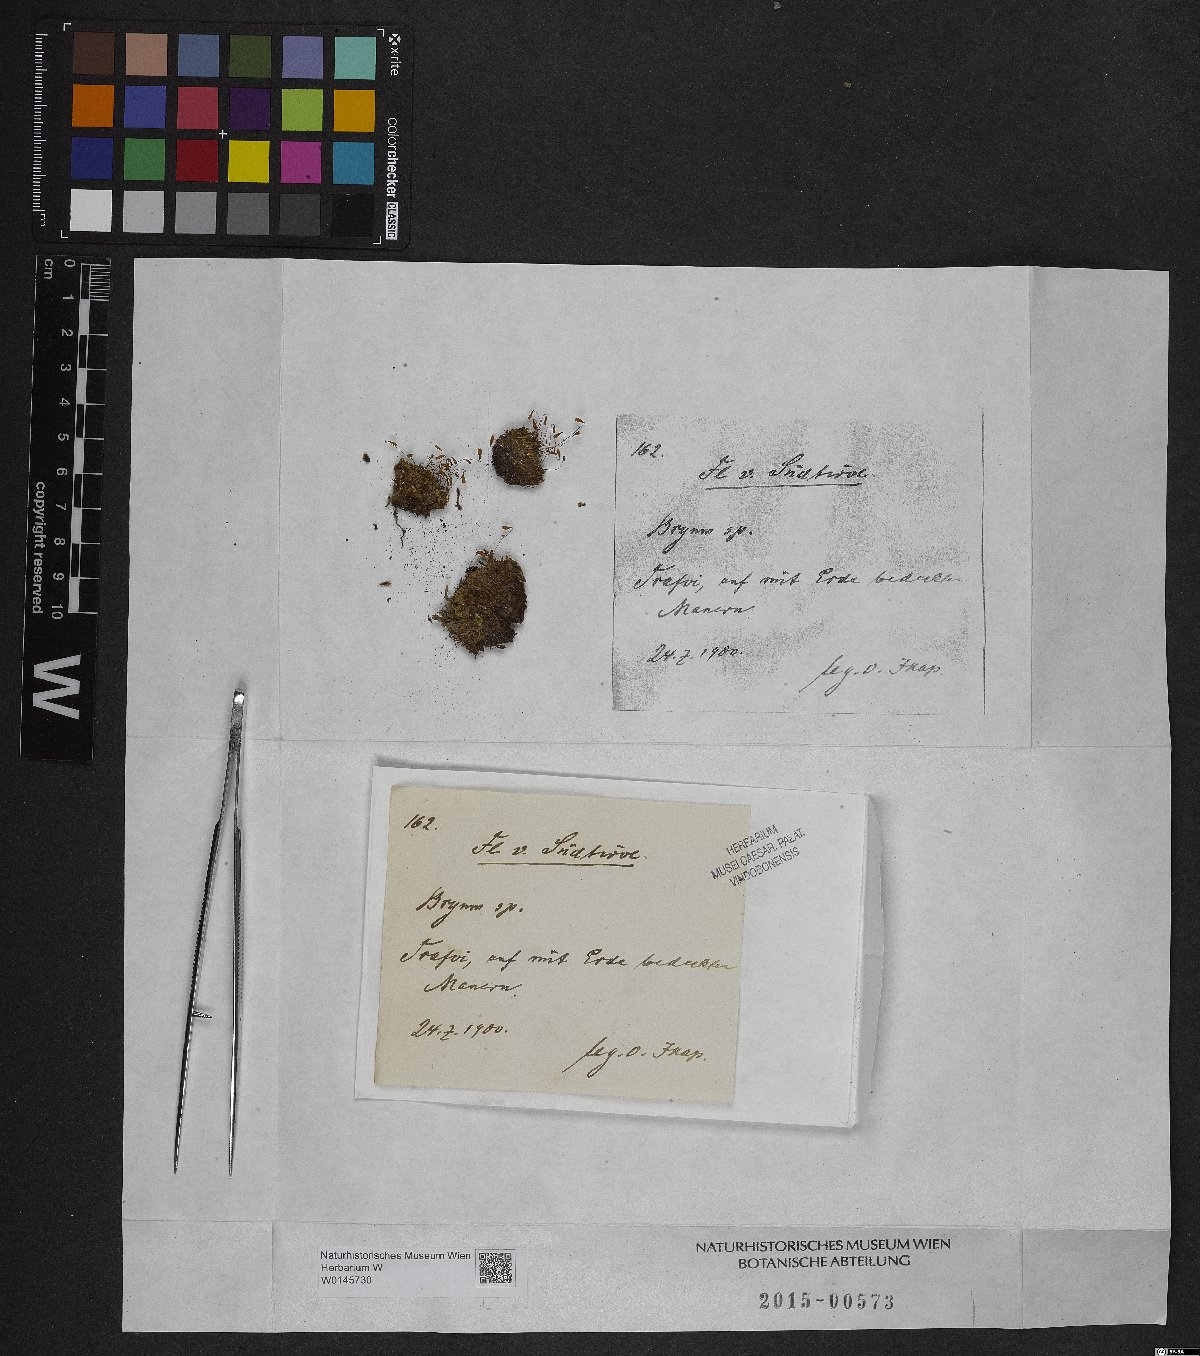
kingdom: Plantae
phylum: Bryophyta
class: Bryopsida
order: Bryales
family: Bryaceae
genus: Bryum
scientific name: Bryum
